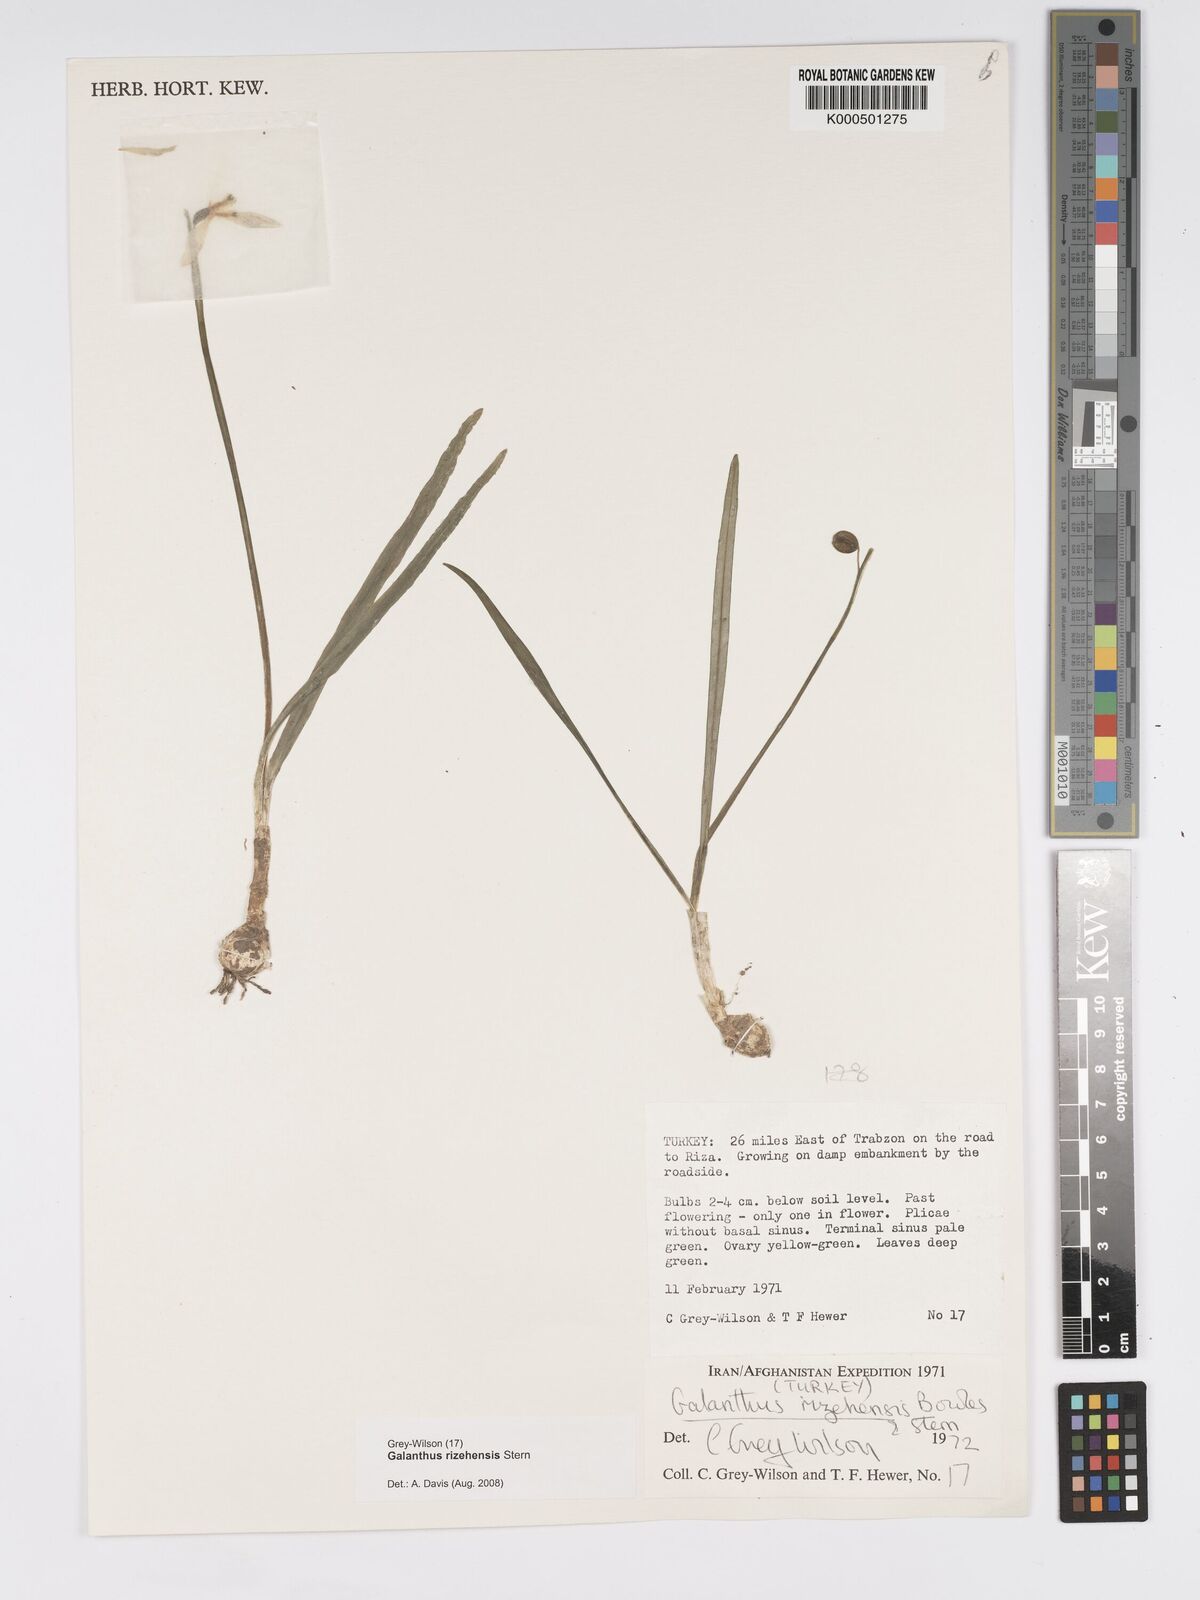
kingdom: Plantae
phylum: Tracheophyta
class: Liliopsida
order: Asparagales
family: Amaryllidaceae
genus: Galanthus
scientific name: Galanthus rizehensis
